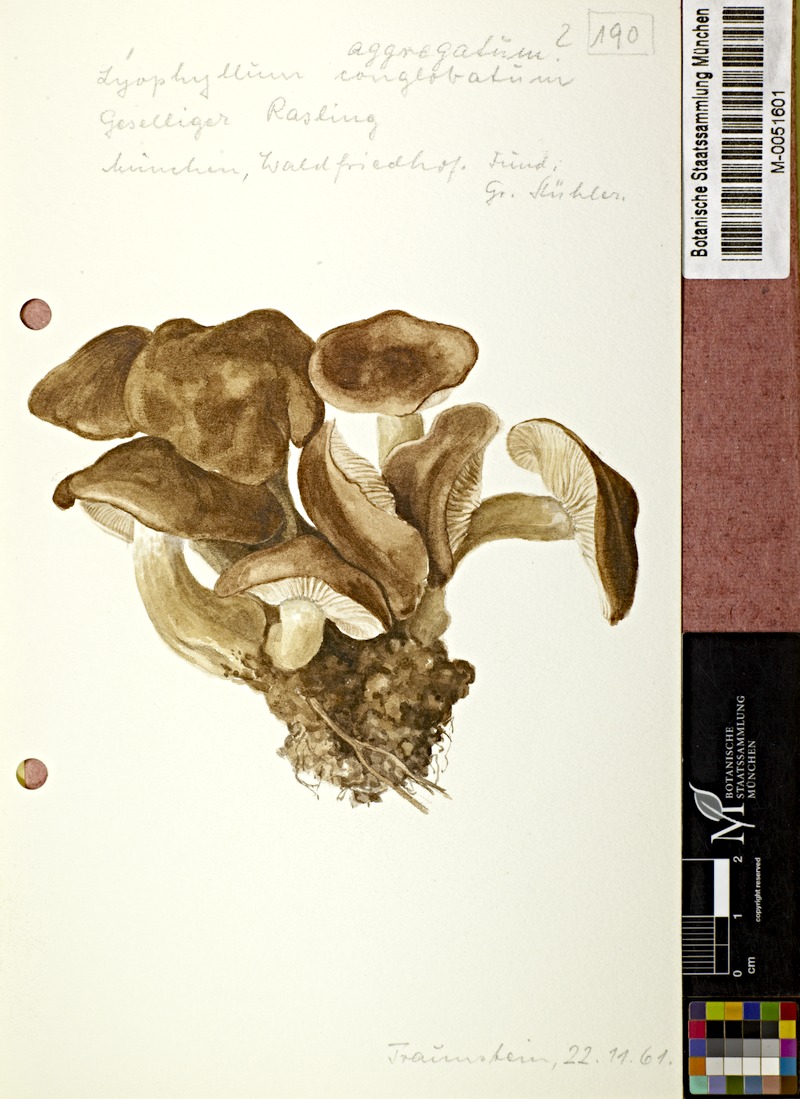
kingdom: Fungi
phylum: Basidiomycota
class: Agaricomycetes
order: Agaricales
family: Lyophyllaceae
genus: Lyophyllum
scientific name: Lyophyllum decastes
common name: Clustered domecap
